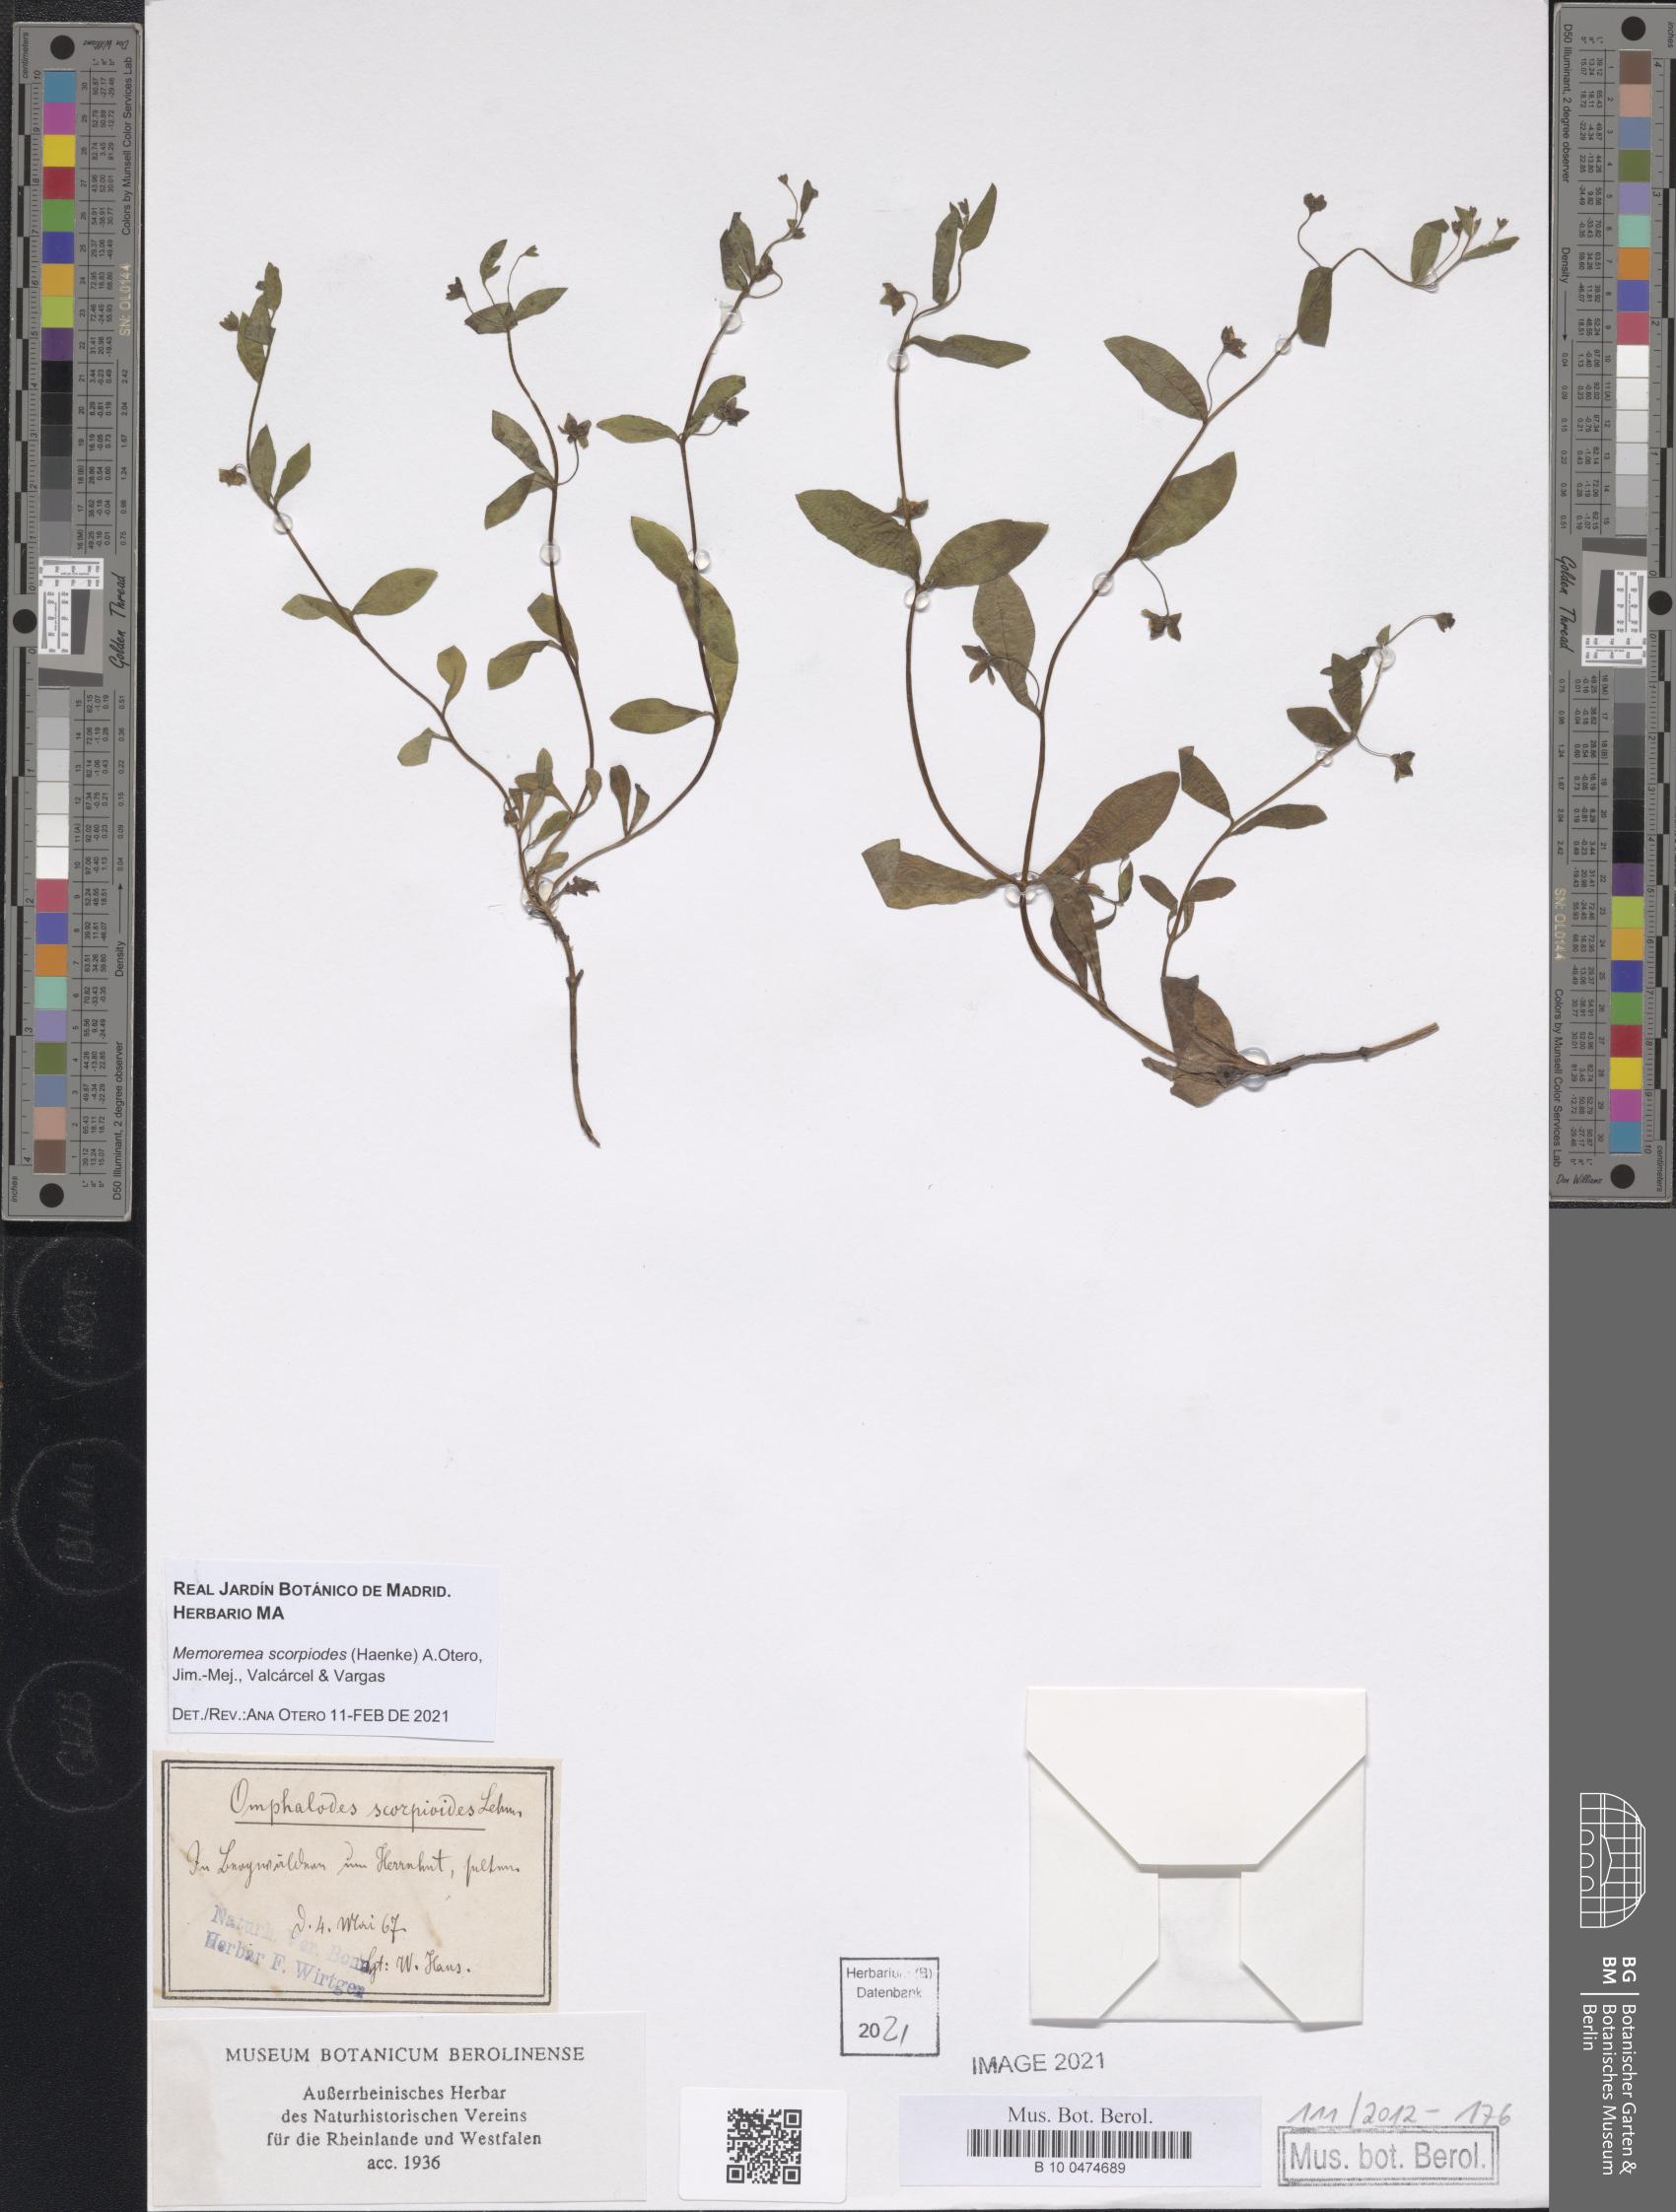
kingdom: Plantae
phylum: Tracheophyta
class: Magnoliopsida
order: Boraginales
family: Boraginaceae
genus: Memoremea
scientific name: Memoremea scorpioides
